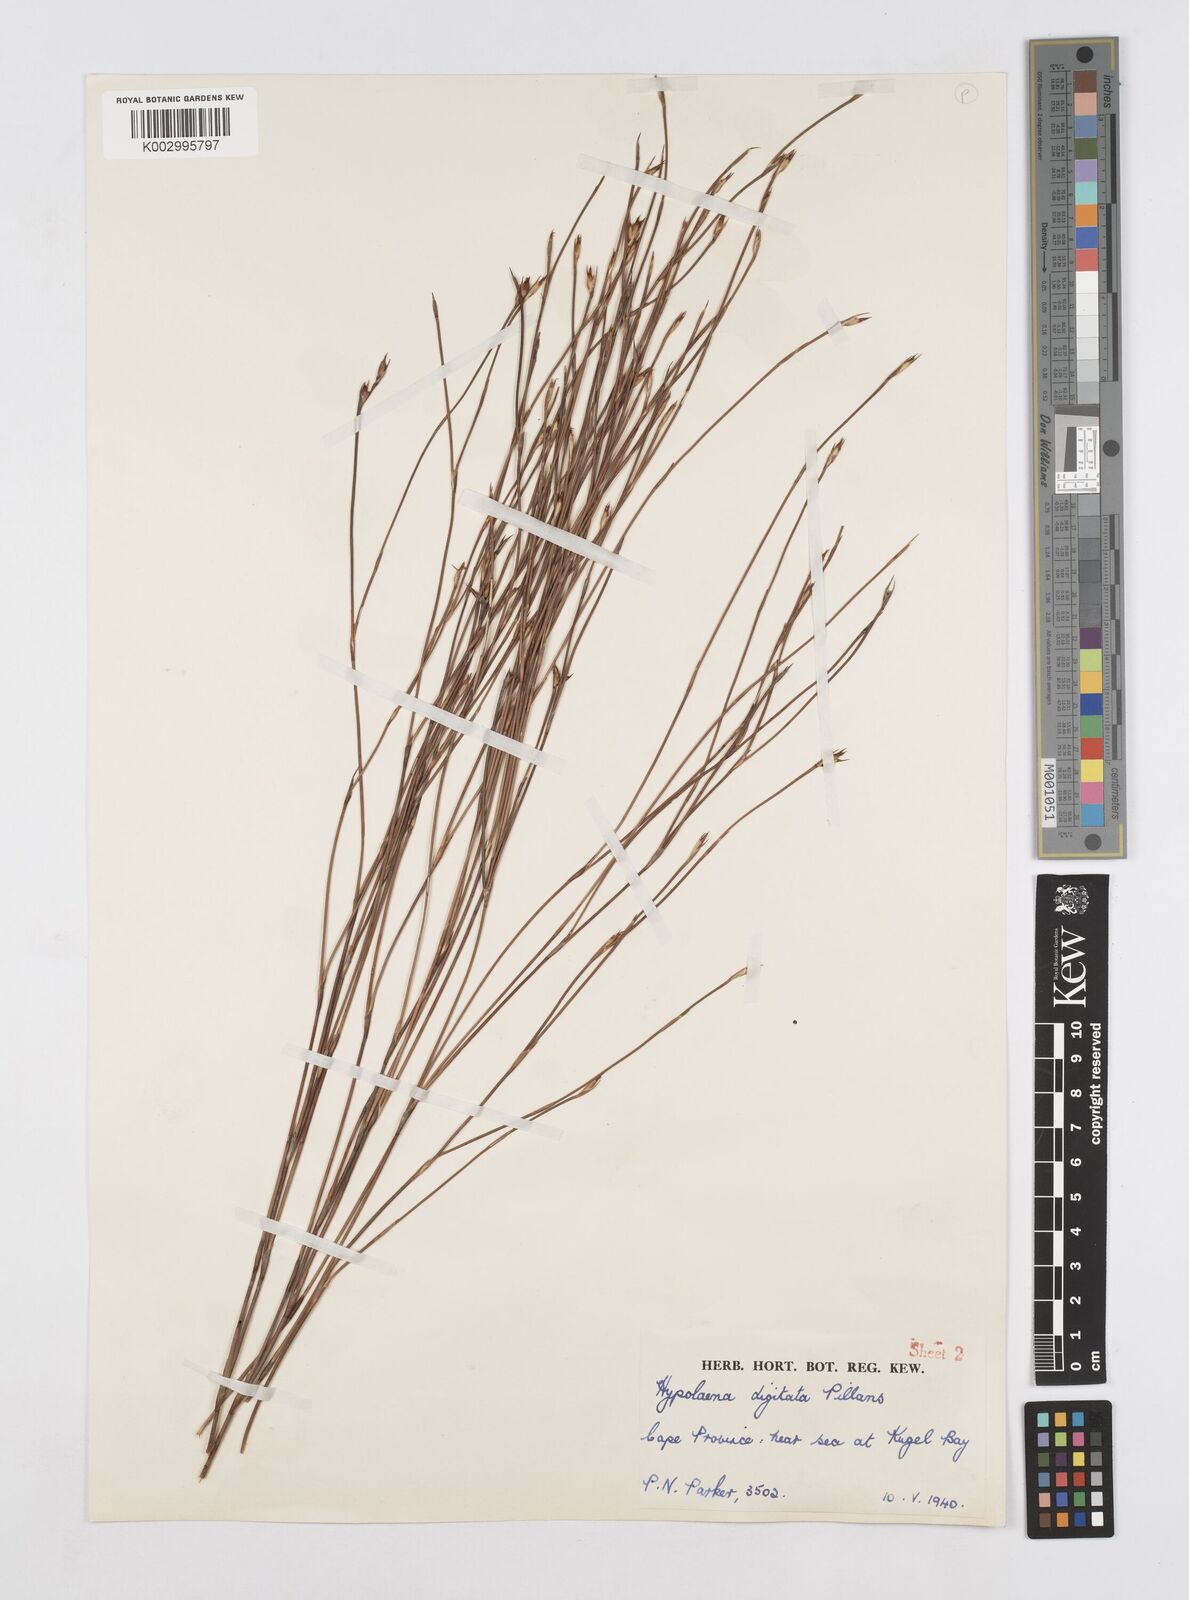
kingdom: Plantae
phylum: Tracheophyta
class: Liliopsida
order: Poales
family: Restionaceae
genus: Mastersiella
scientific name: Mastersiella digitata
